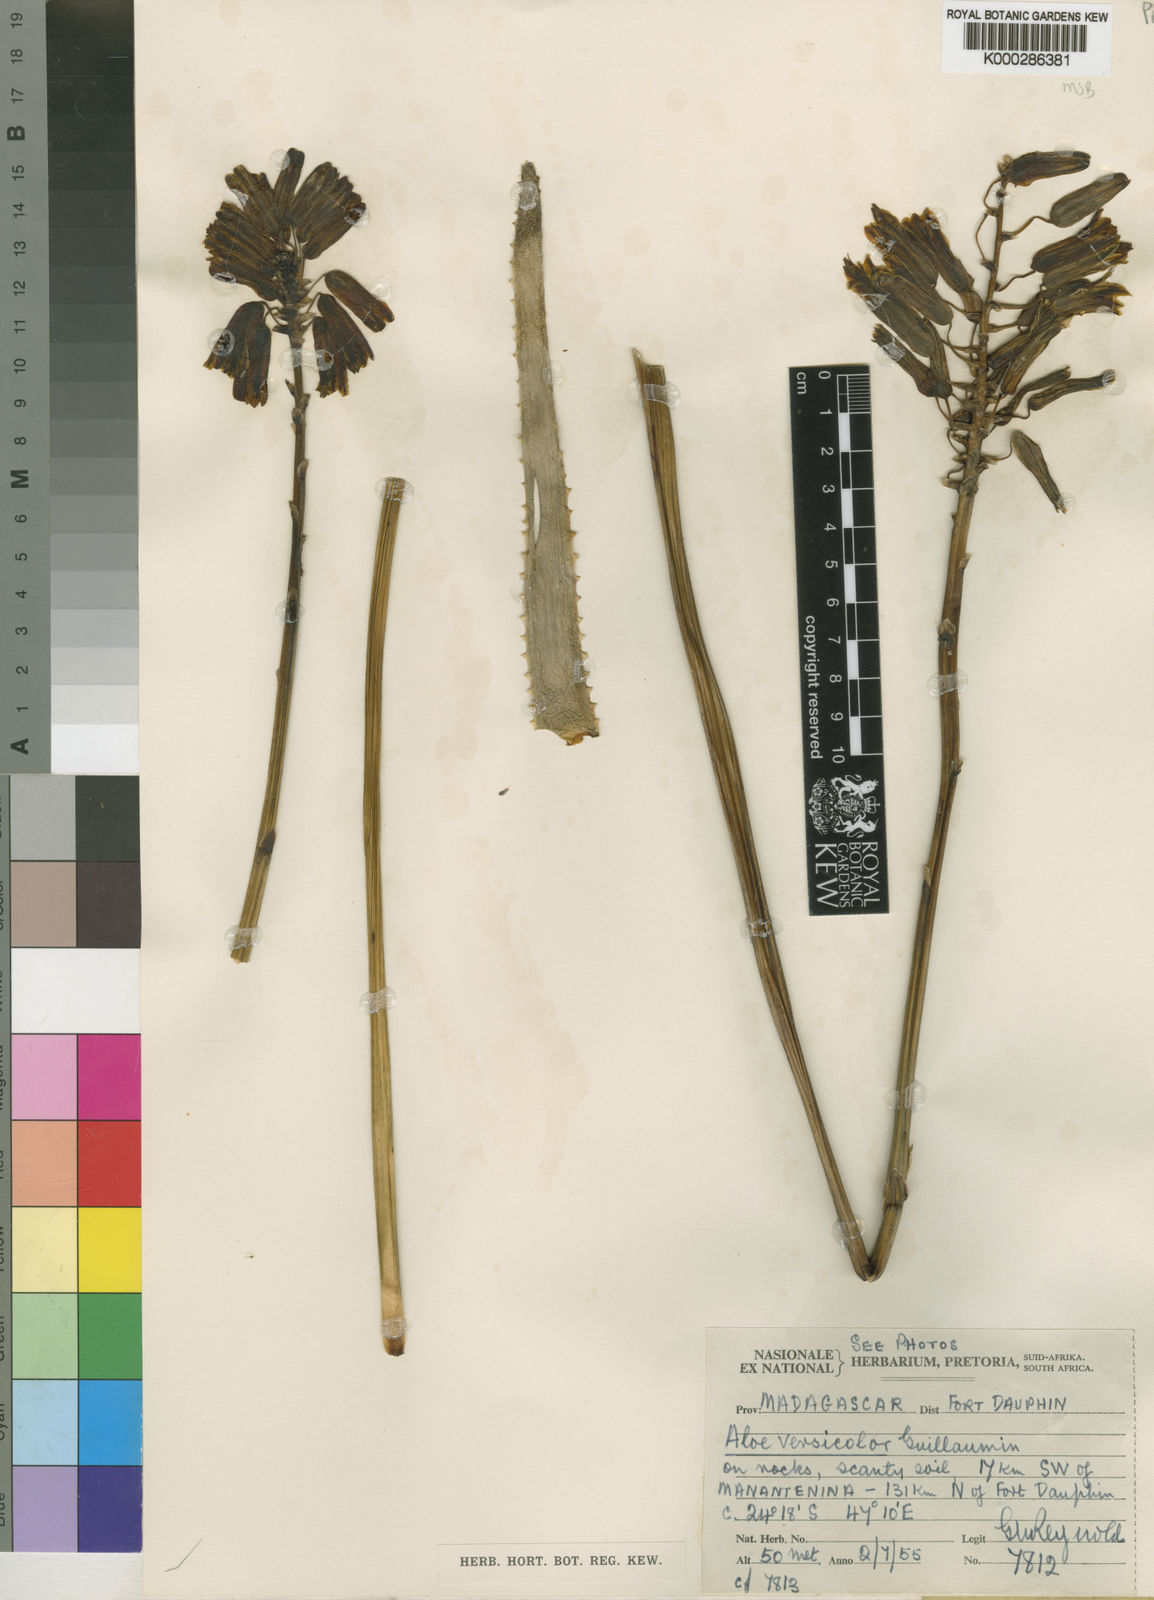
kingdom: Plantae
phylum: Tracheophyta
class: Liliopsida
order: Asparagales
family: Asphodelaceae
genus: Aloe
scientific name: Aloe versicolor
